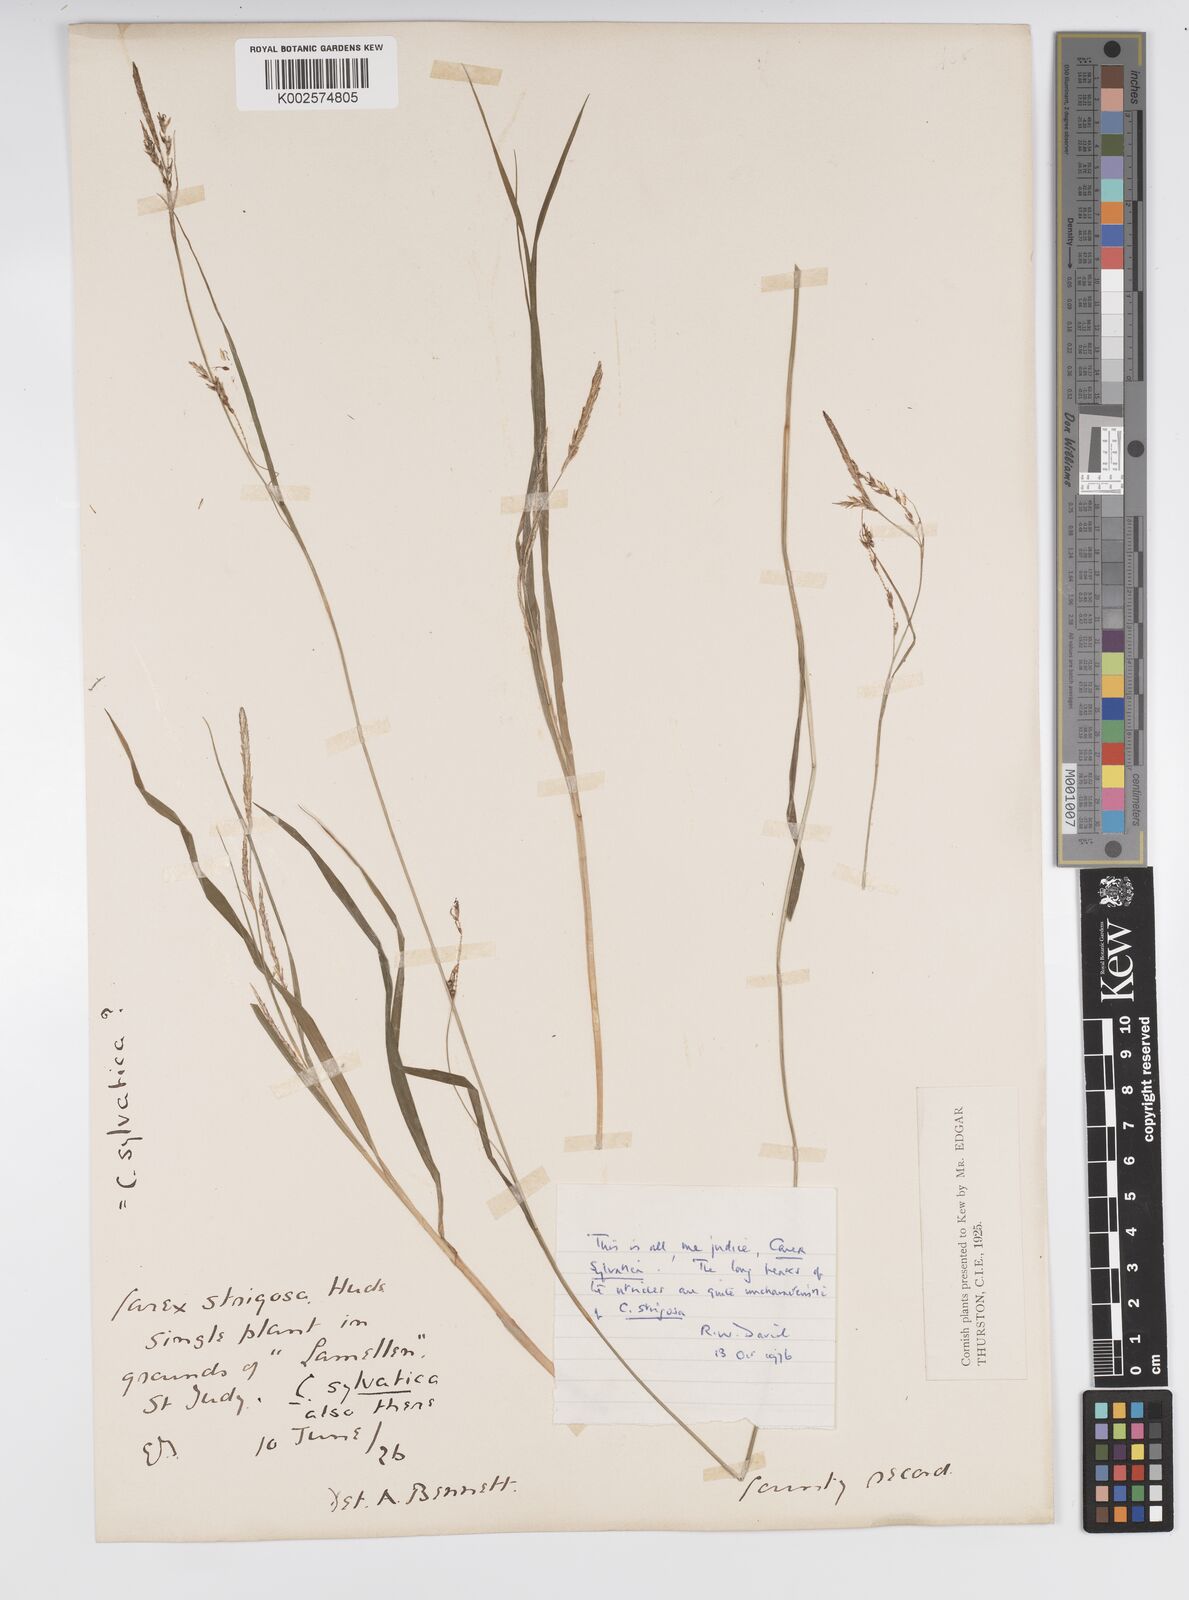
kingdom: Plantae
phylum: Tracheophyta
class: Liliopsida
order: Poales
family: Cyperaceae
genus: Carex
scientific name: Carex strigosa
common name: Thin-spiked wood-sedge
